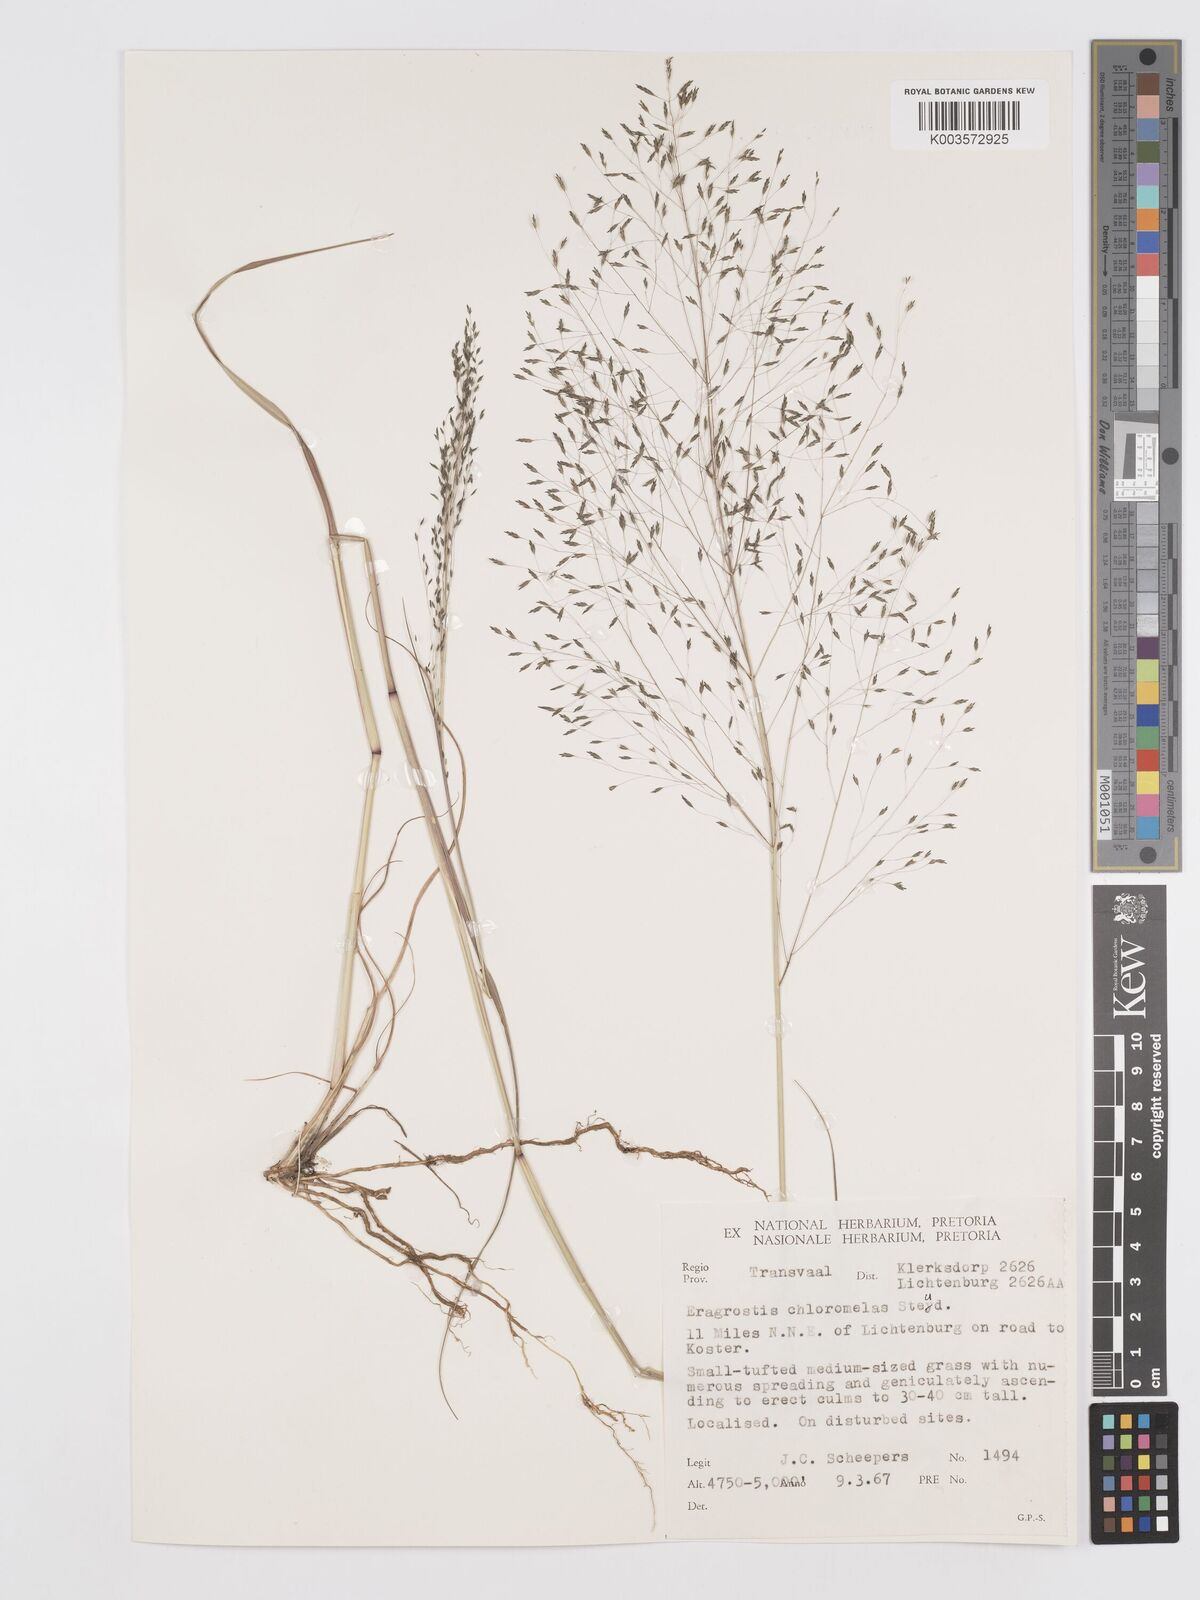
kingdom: Plantae
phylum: Tracheophyta
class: Liliopsida
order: Poales
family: Poaceae
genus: Eragrostis
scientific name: Eragrostis curvula
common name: African love-grass
